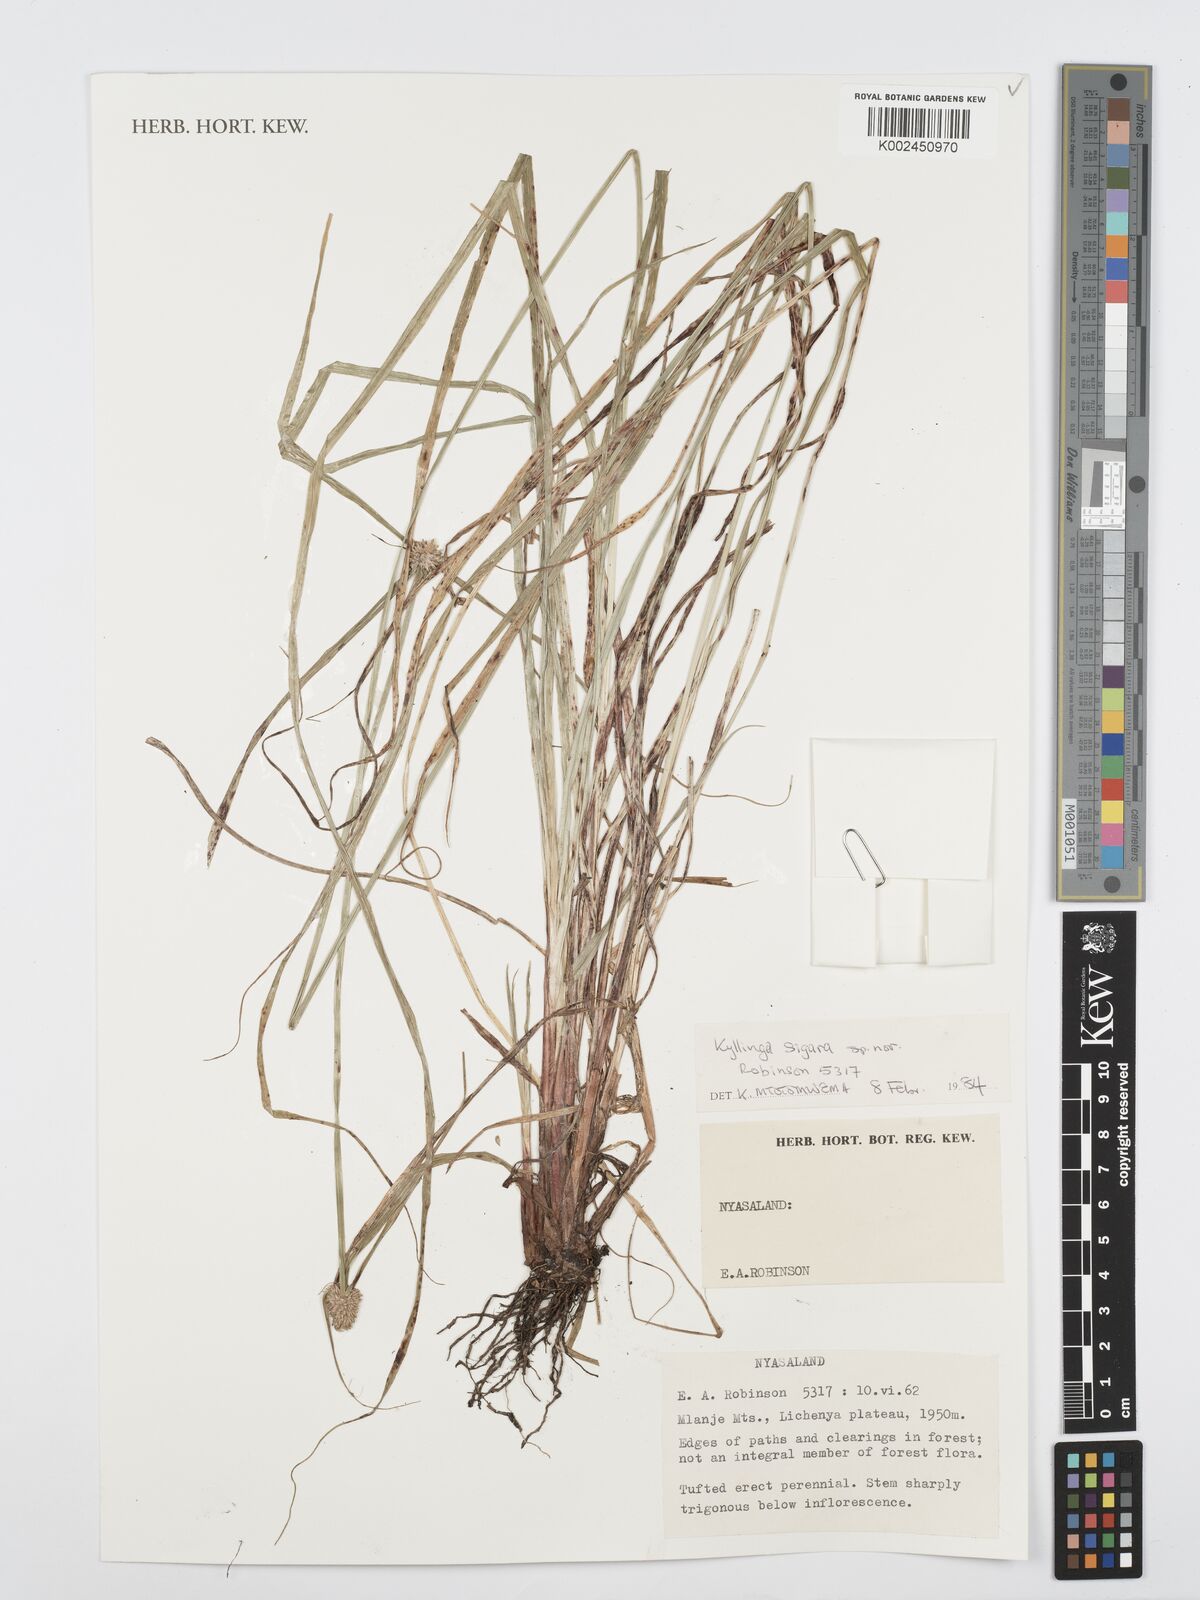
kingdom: Plantae
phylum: Tracheophyta
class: Liliopsida
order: Poales
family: Cyperaceae
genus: Cyperus
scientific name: Cyperus
